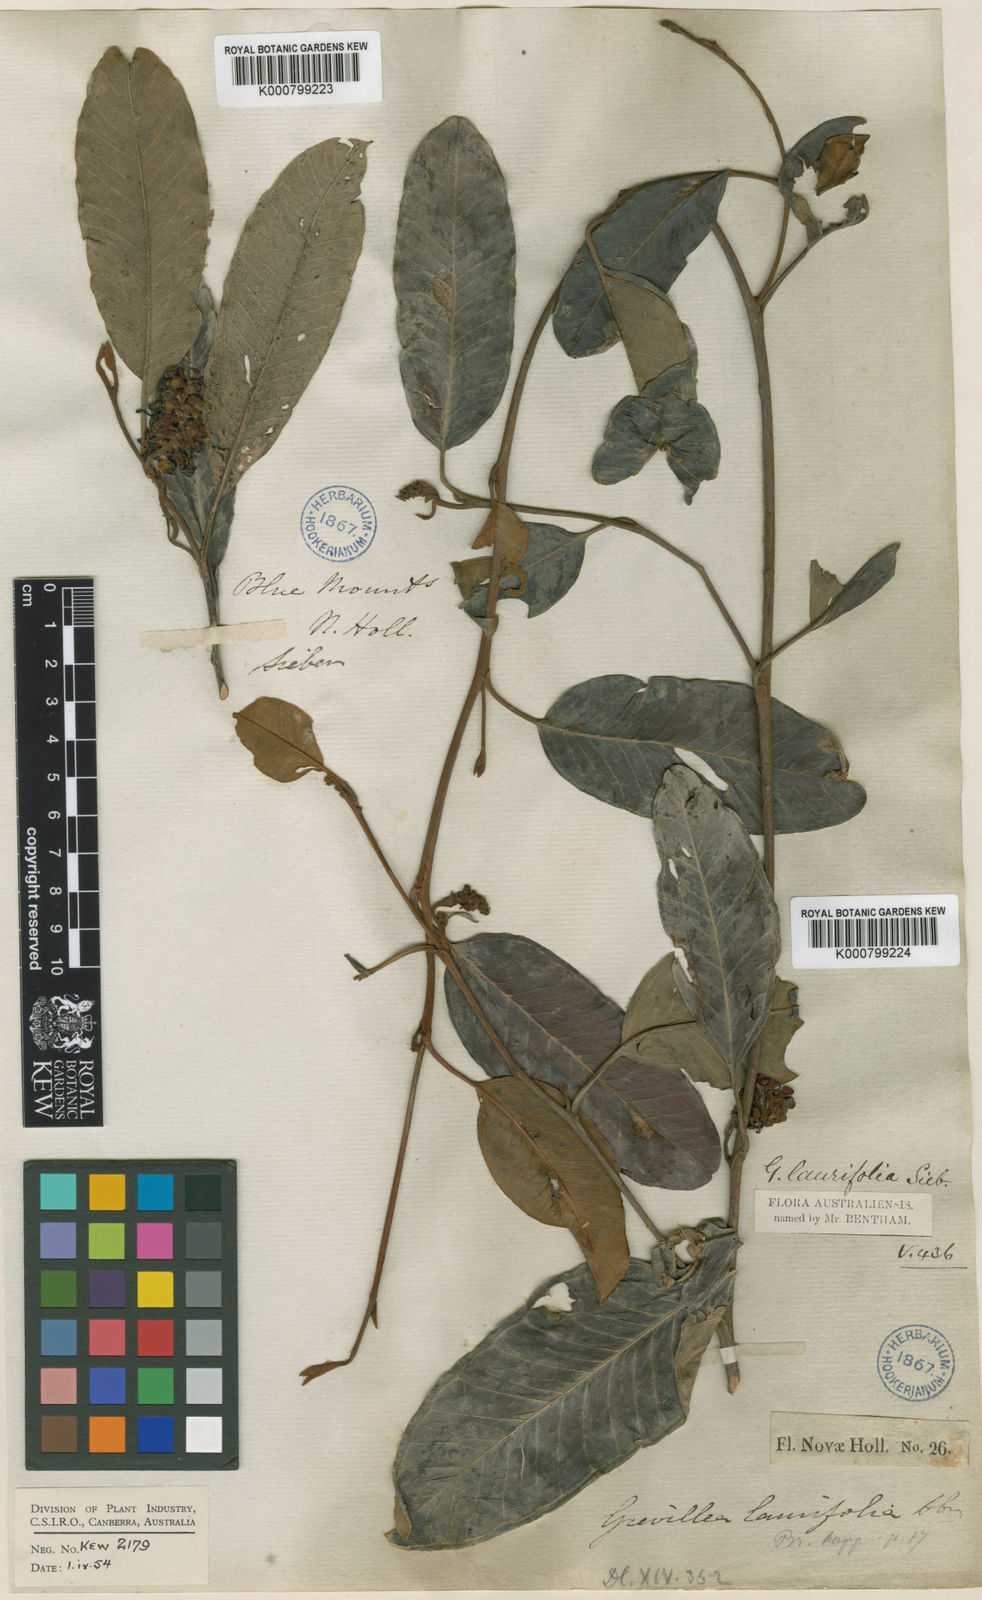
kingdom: Plantae
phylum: Tracheophyta
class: Magnoliopsida
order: Proteales
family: Proteaceae
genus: Grevillea
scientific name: Grevillea
